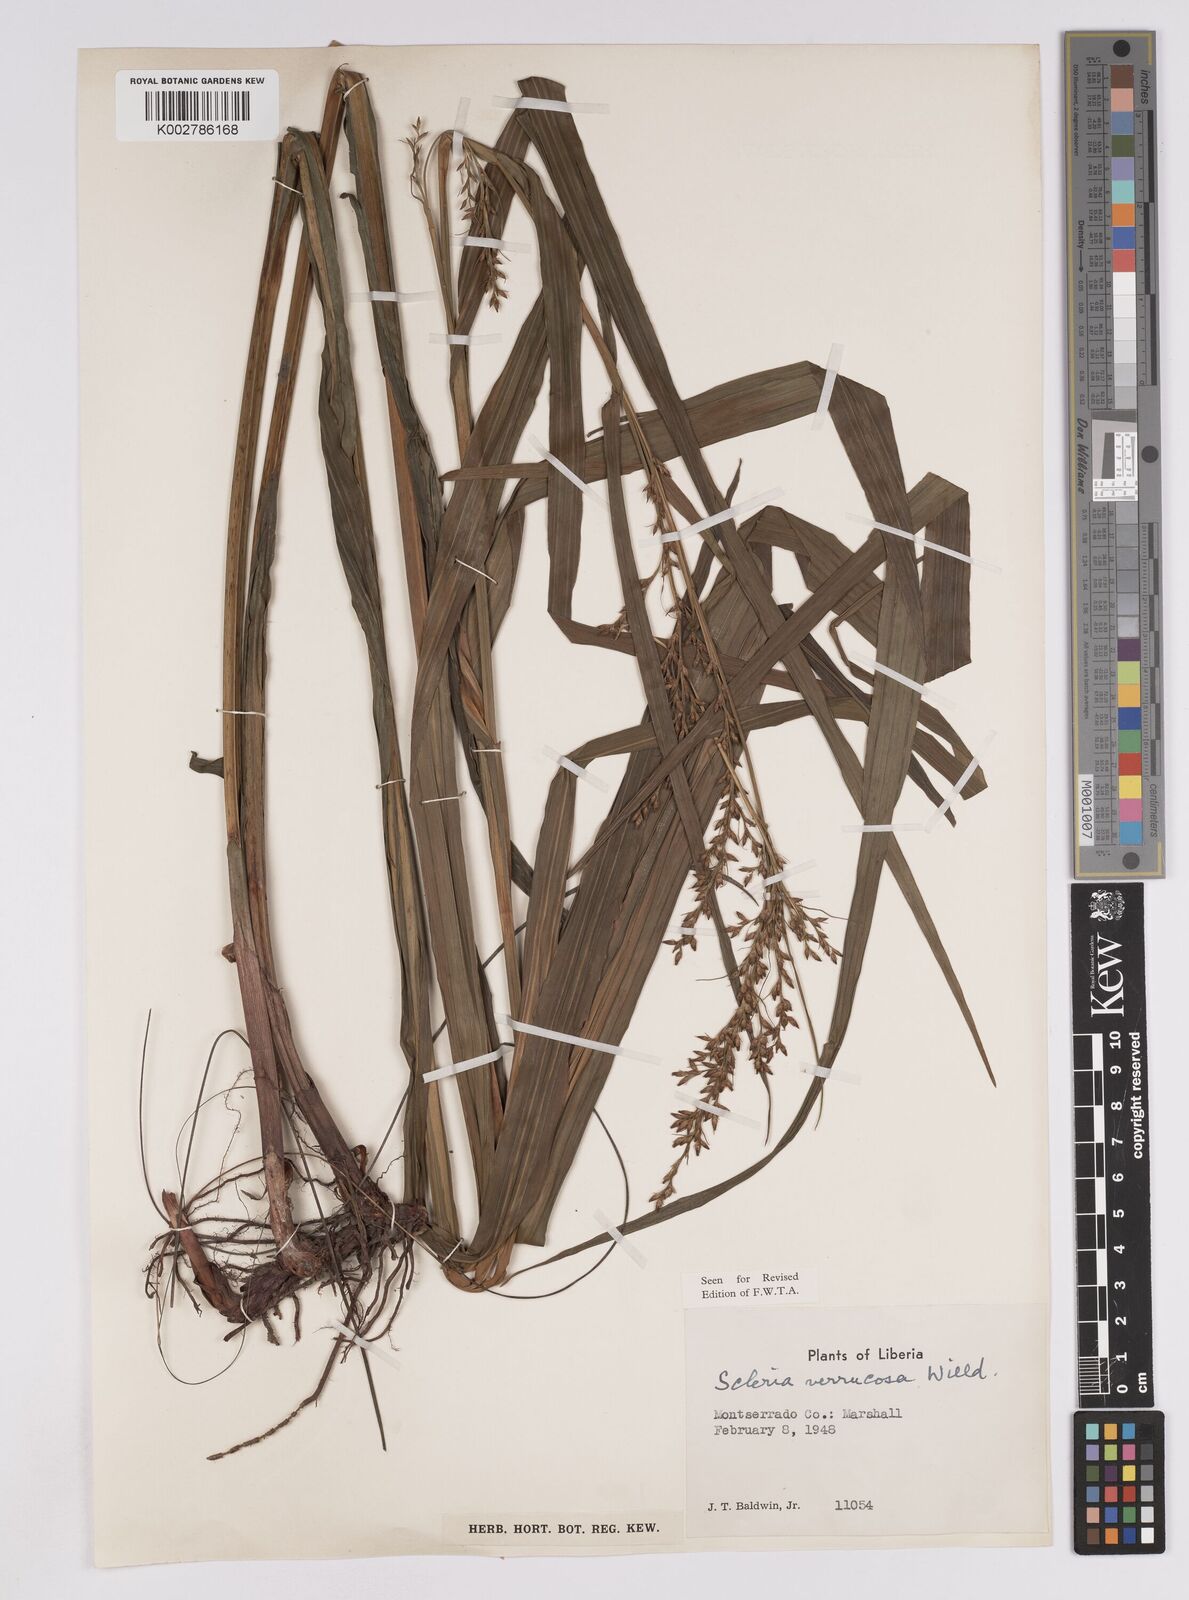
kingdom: Plantae
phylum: Tracheophyta
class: Liliopsida
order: Poales
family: Cyperaceae
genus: Scleria
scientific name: Scleria verrucosa
